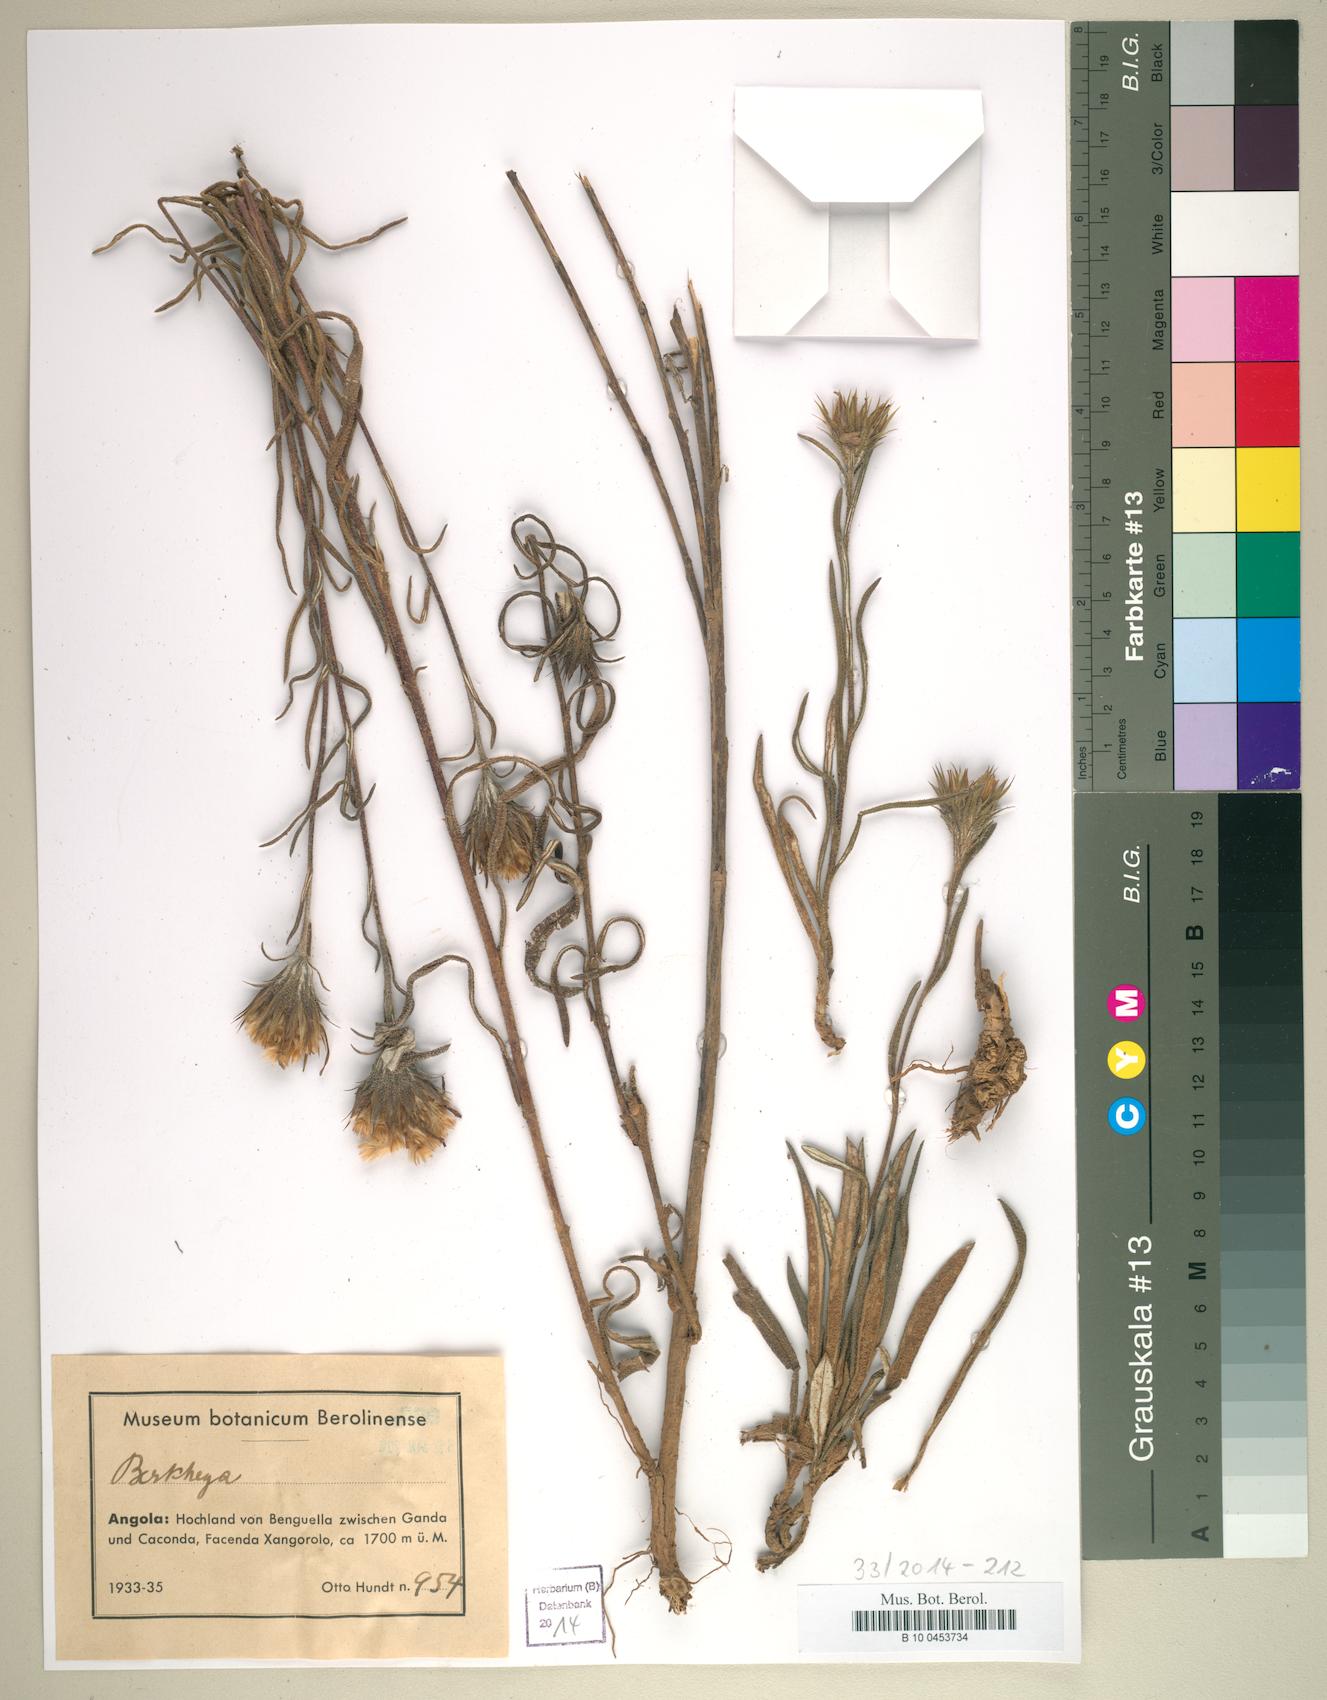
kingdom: Plantae
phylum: Tracheophyta
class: Magnoliopsida
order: Asterales
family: Asteraceae
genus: Berkheya
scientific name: Berkheya
